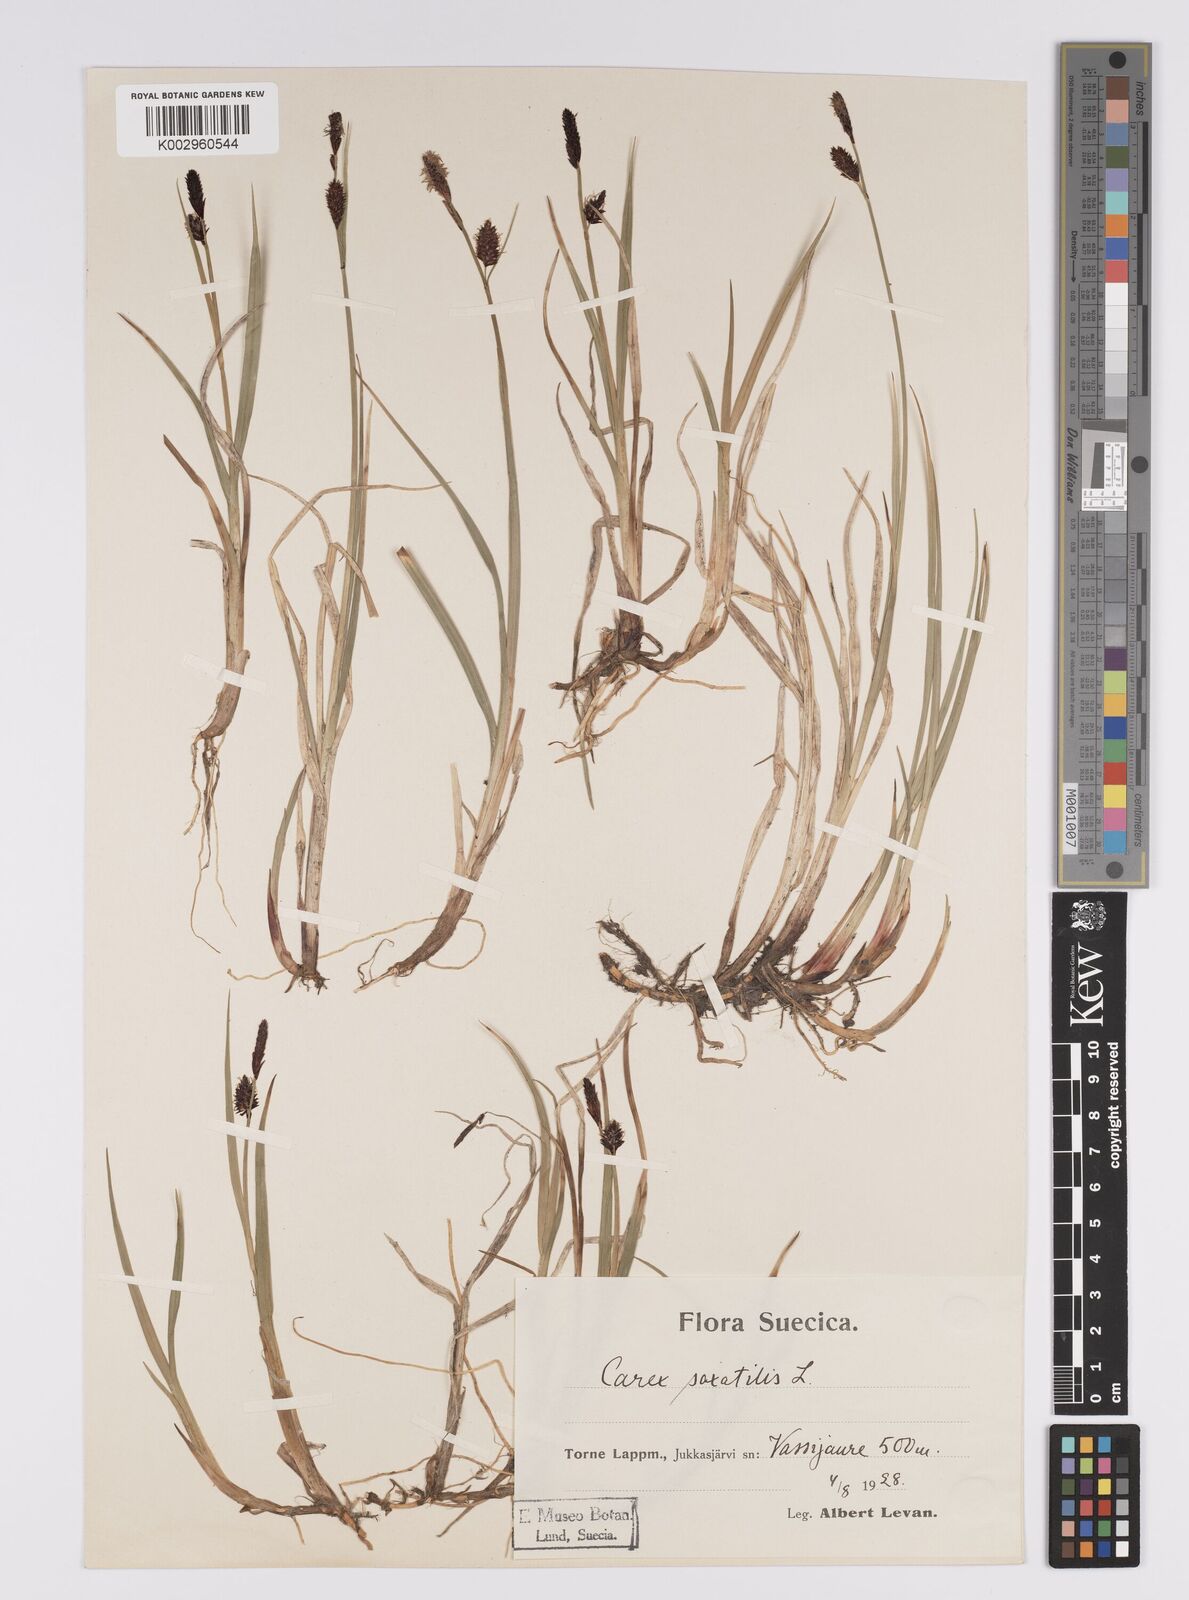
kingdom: Plantae
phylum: Tracheophyta
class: Liliopsida
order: Poales
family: Cyperaceae
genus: Carex
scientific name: Carex saxatilis
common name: Russet sedge
